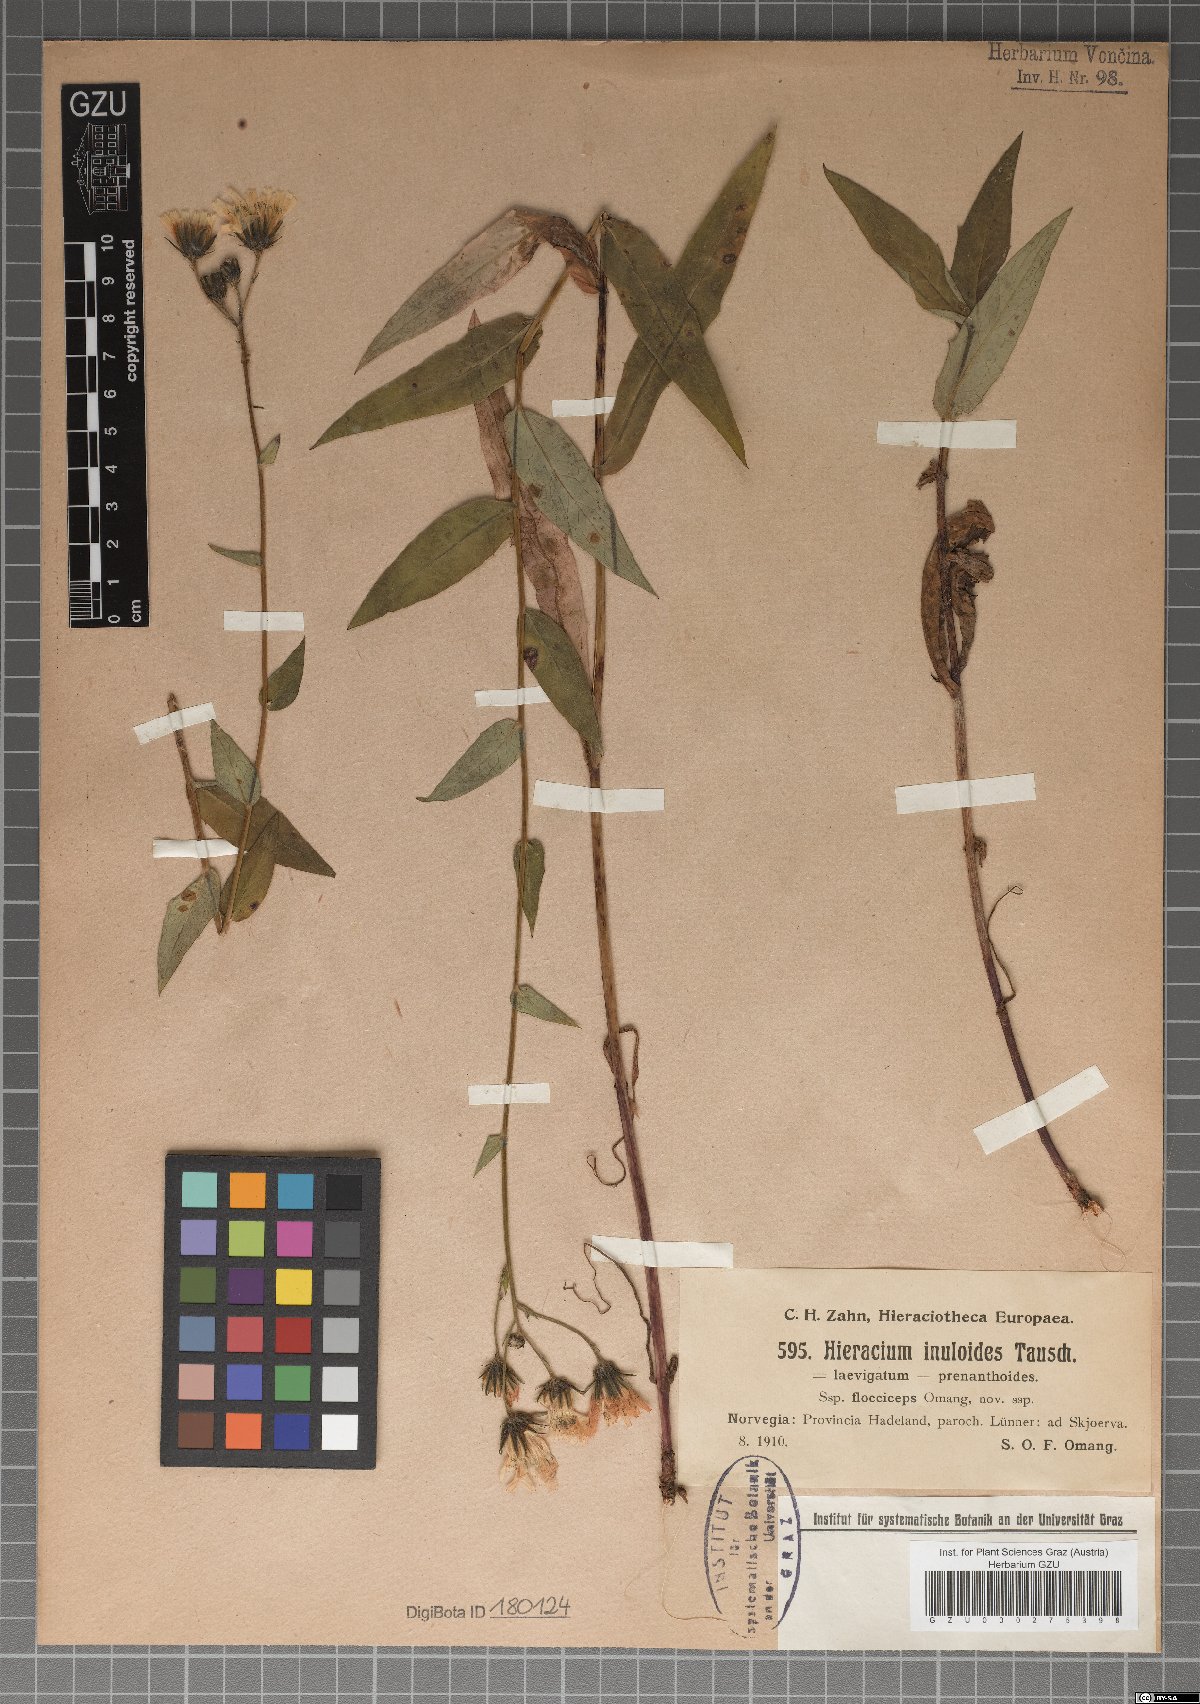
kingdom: Plantae
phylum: Tracheophyta
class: Magnoliopsida
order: Asterales
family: Asteraceae
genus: Hieracium
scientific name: Hieracium inuloides
